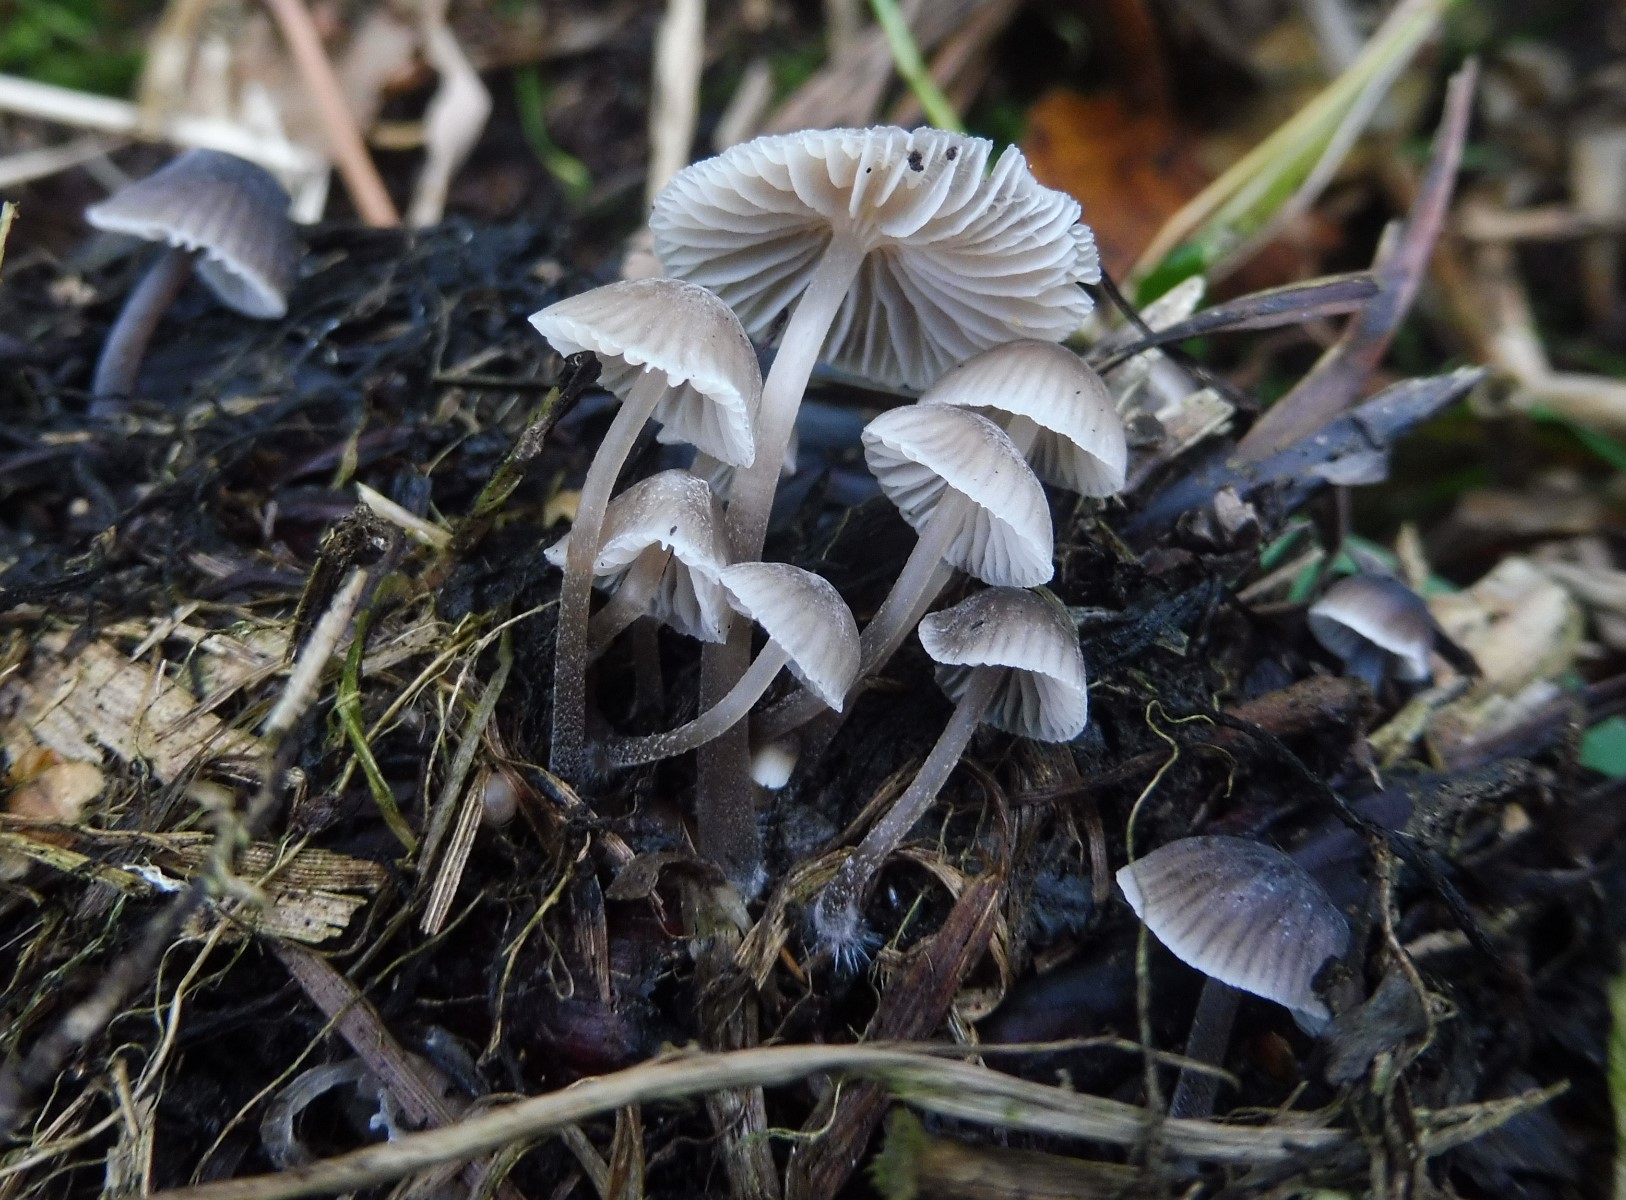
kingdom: Fungi
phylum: Basidiomycota
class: Agaricomycetes
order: Agaricales
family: Mycenaceae
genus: Mycena
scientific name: Mycena leptocephala
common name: klor-huesvamp
